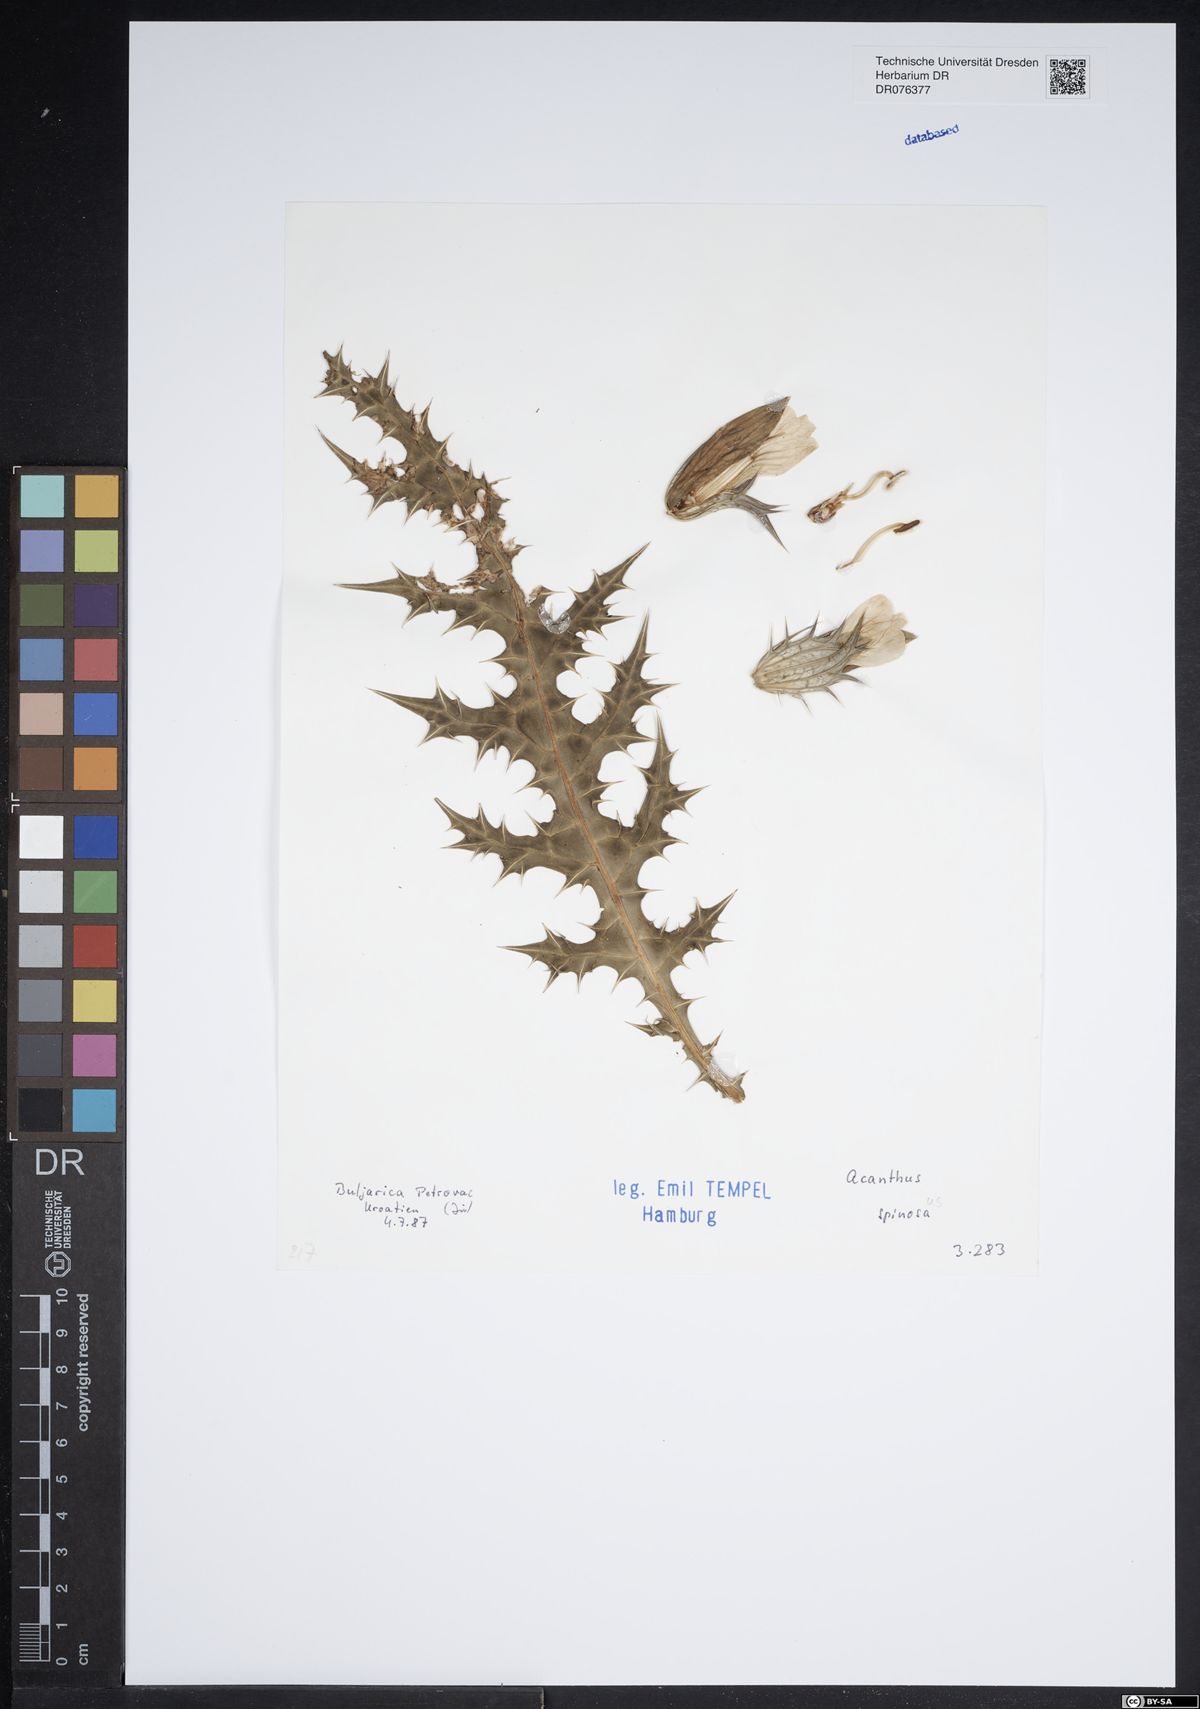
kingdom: Plantae
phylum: Tracheophyta
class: Magnoliopsida
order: Lamiales
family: Acanthaceae
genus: Acanthus
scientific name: Acanthus spinosus
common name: Spiny bear's-breech
